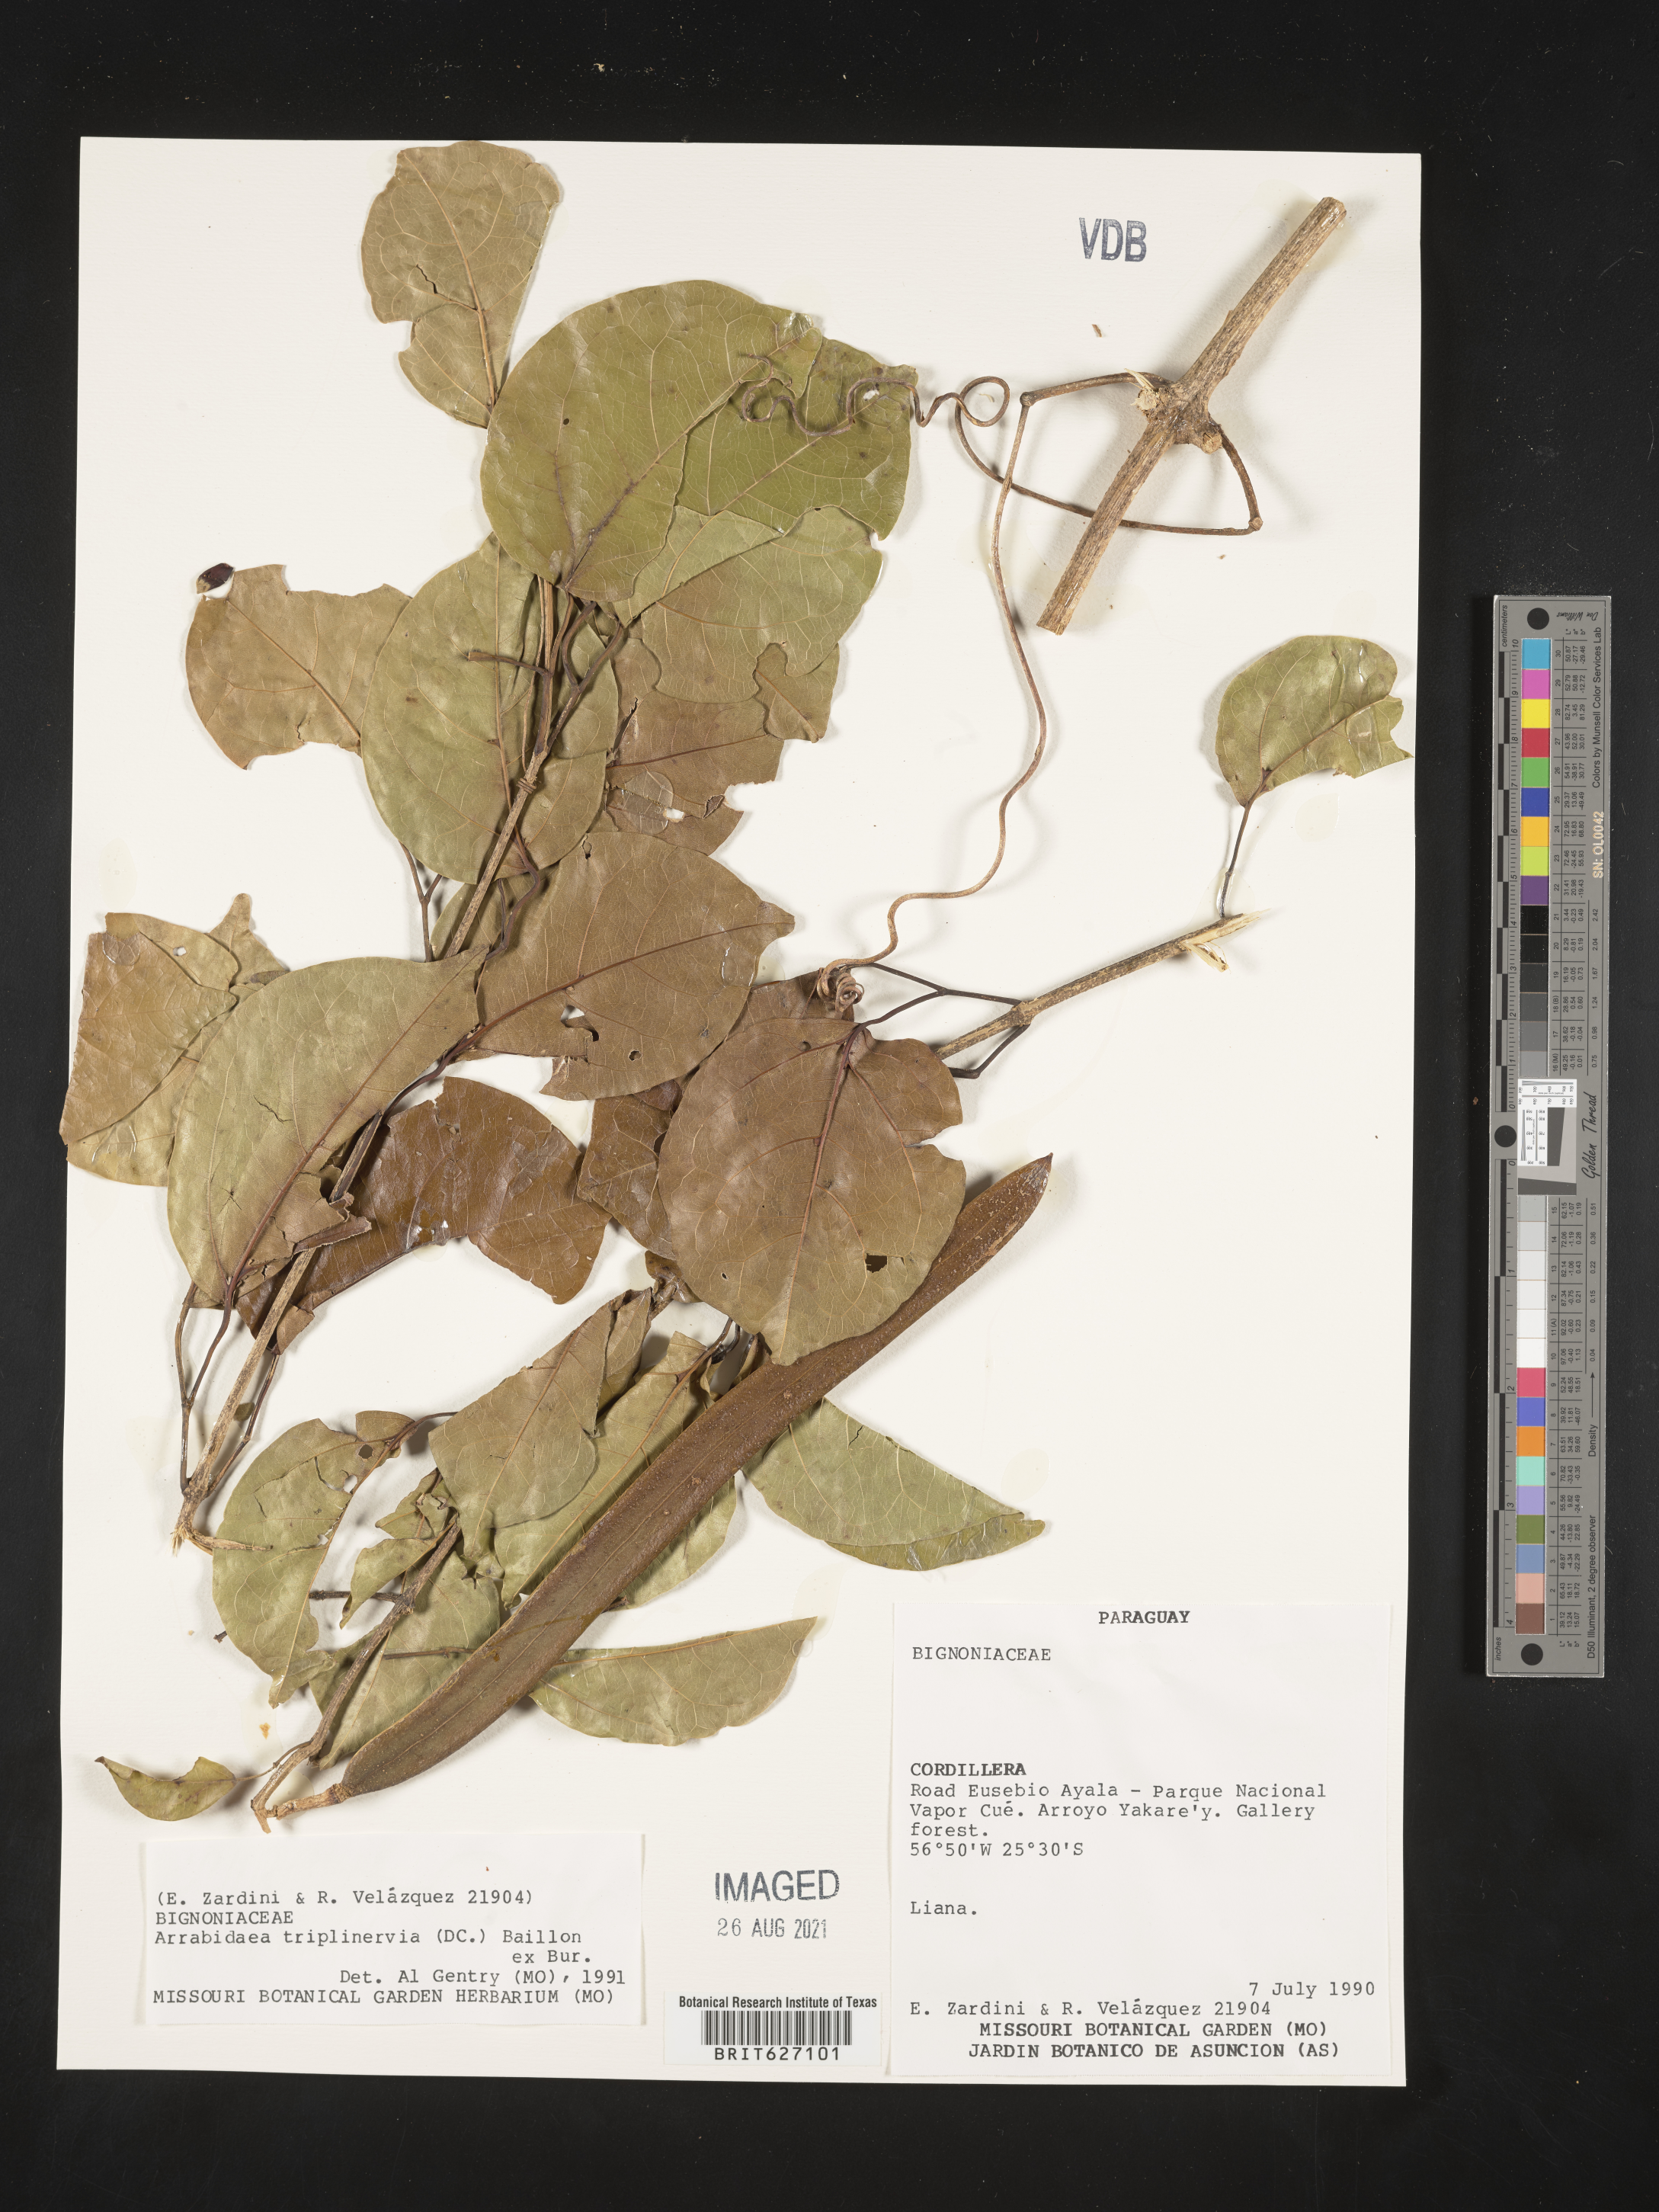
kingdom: Plantae
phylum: Tracheophyta
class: Magnoliopsida
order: Lamiales
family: Bignoniaceae
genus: Fridericia
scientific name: Fridericia triplinervia
